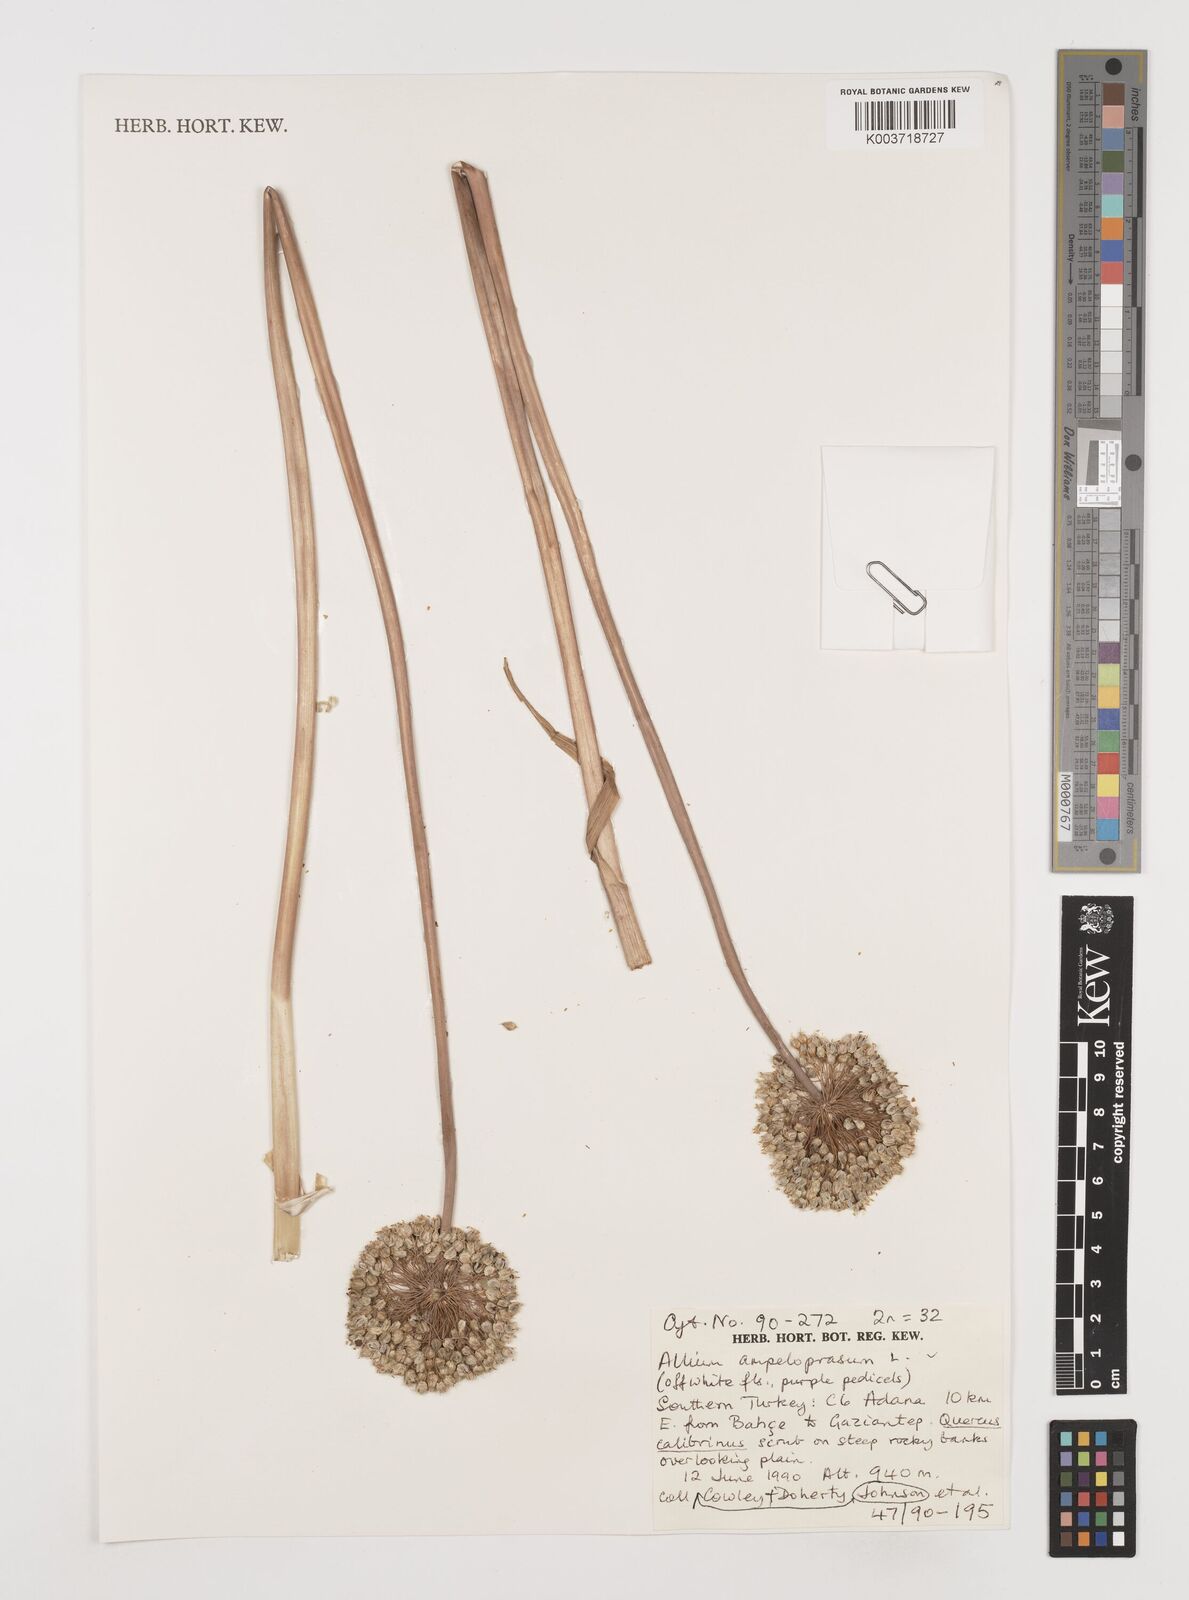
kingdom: Plantae
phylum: Tracheophyta
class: Liliopsida
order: Asparagales
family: Amaryllidaceae
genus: Allium
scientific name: Allium ampeloprasum
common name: Wild leek
